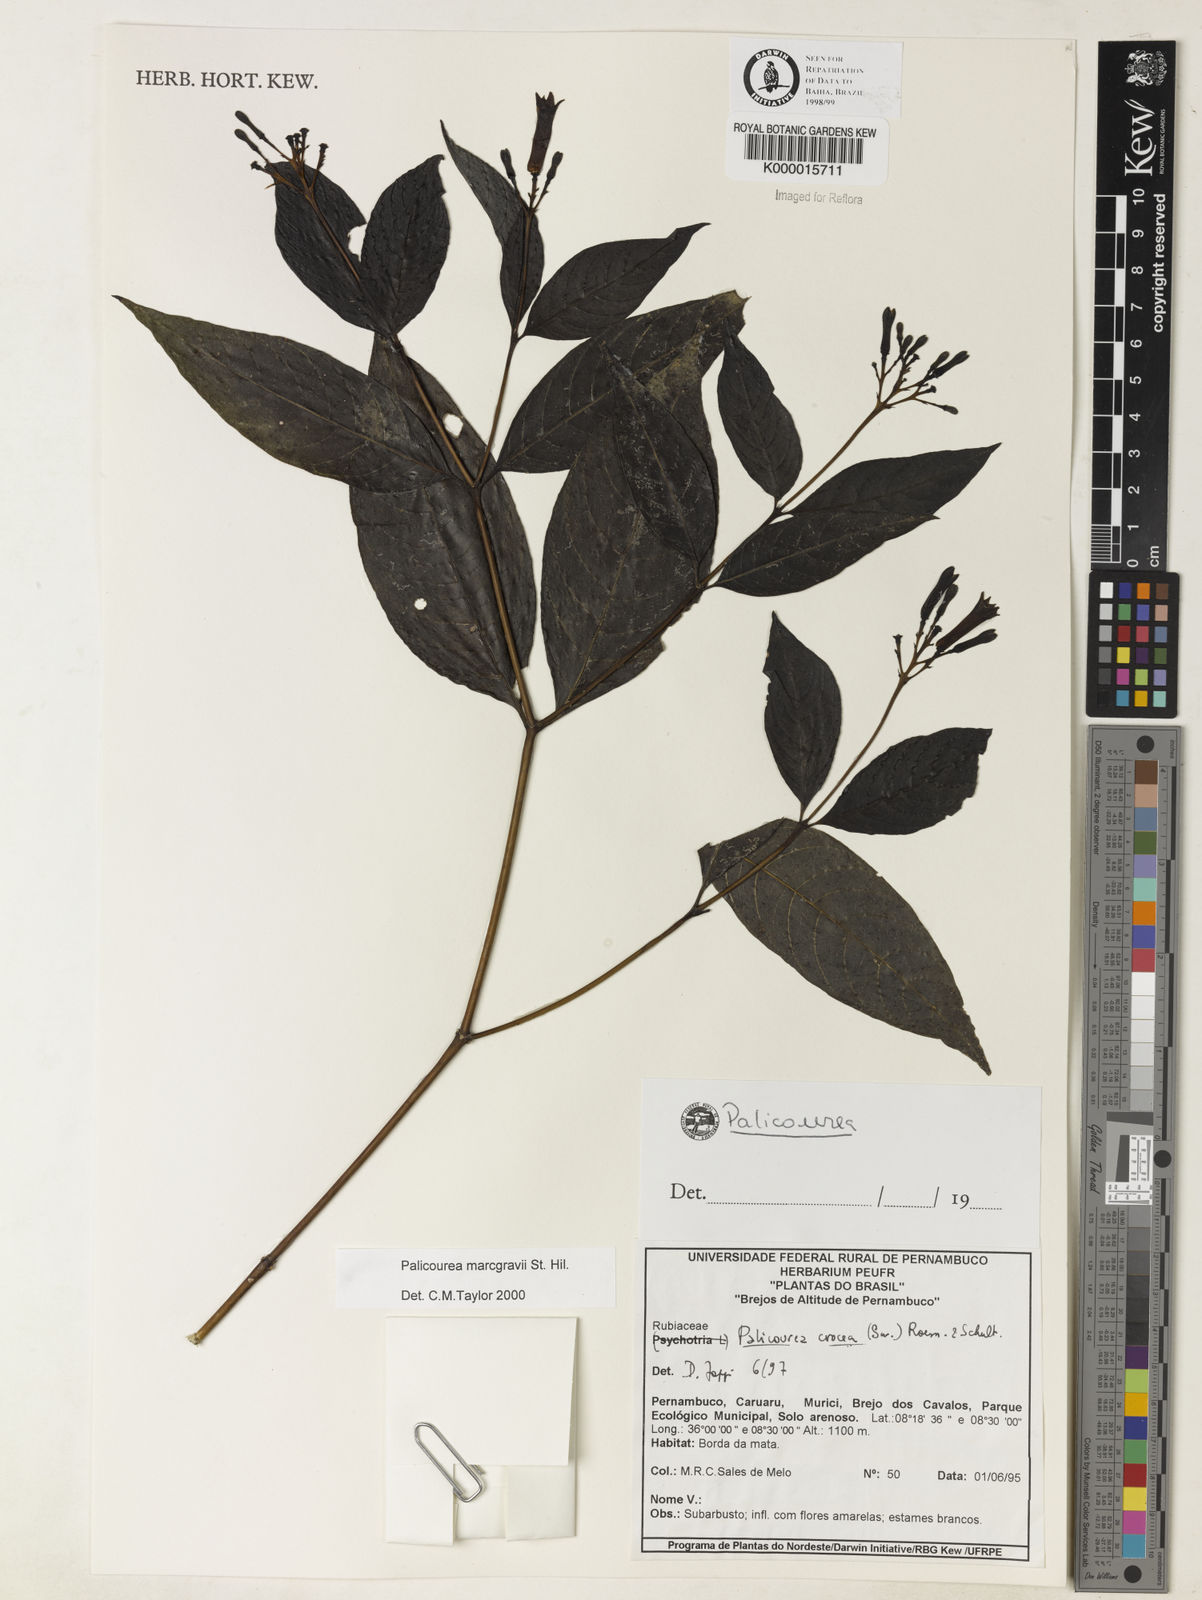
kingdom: Plantae
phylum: Tracheophyta
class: Magnoliopsida
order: Gentianales
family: Rubiaceae
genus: Palicourea
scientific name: Palicourea marcgravii
